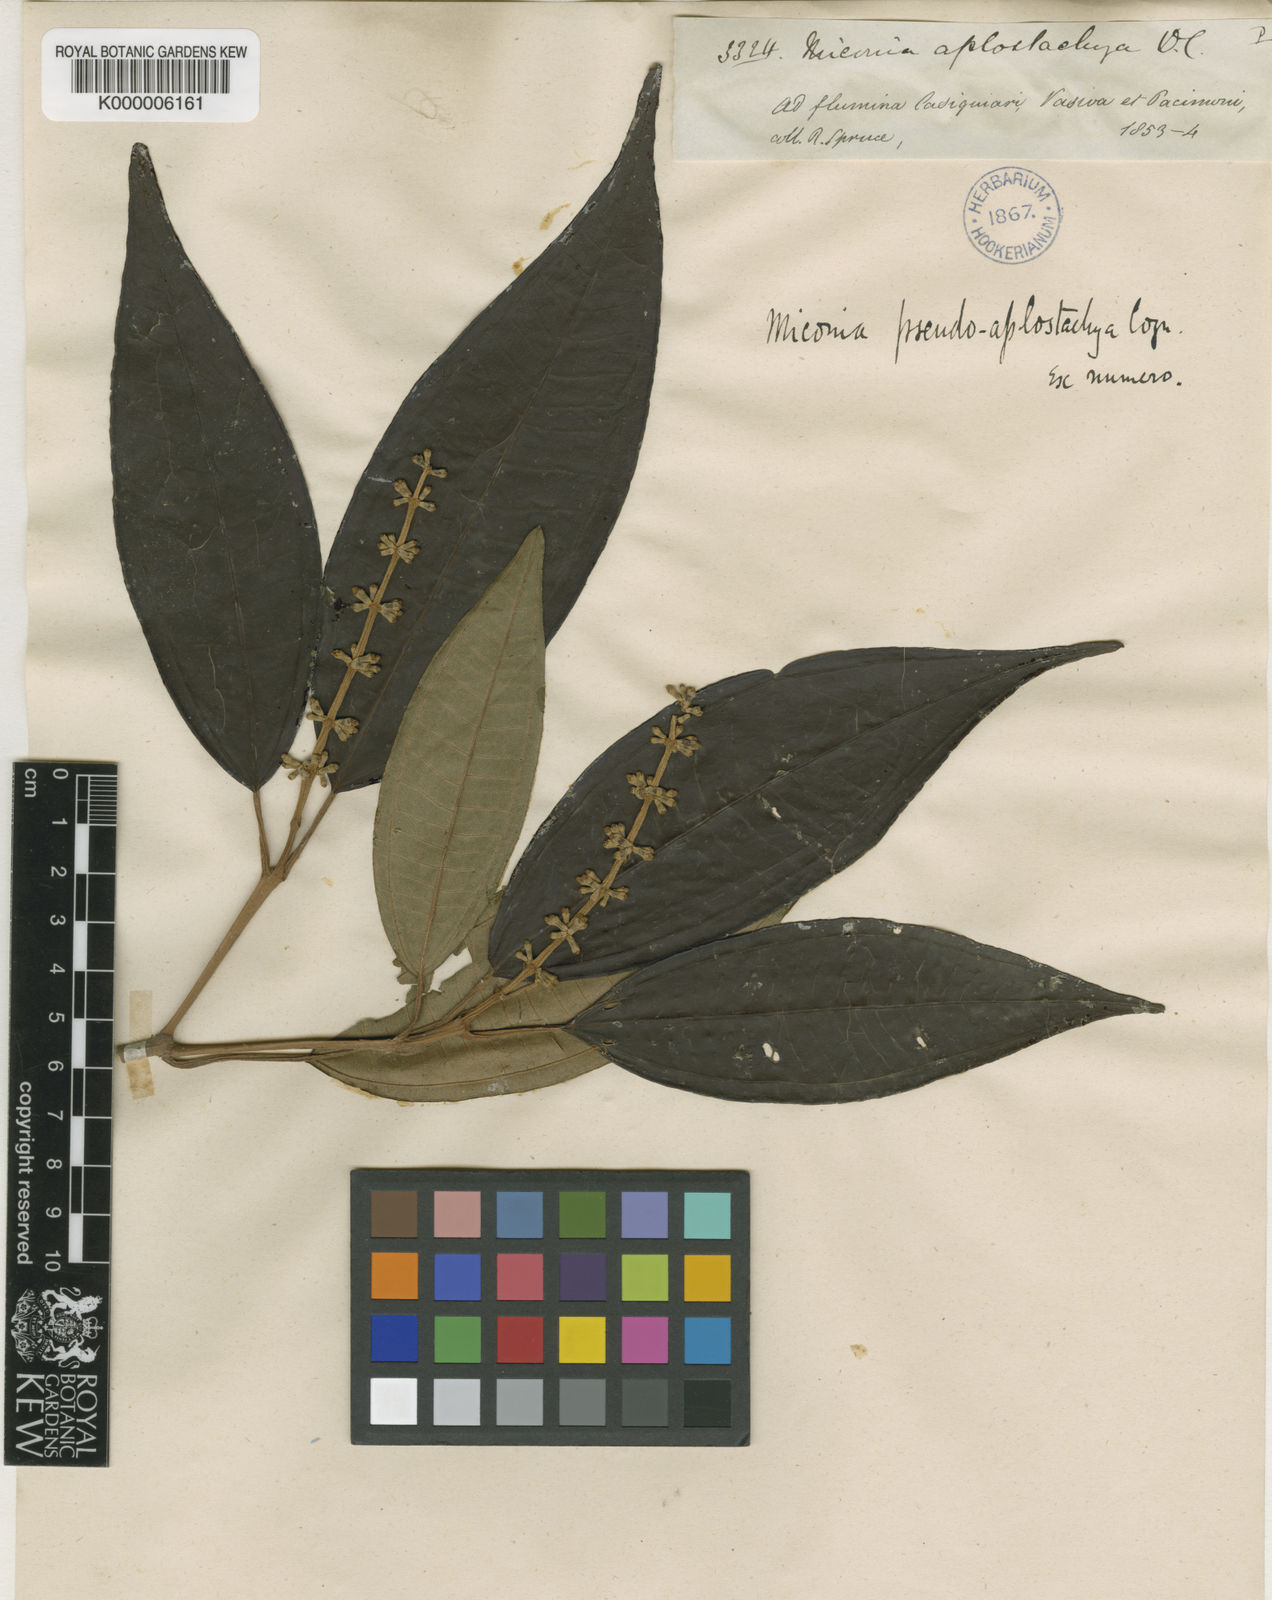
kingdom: Plantae
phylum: Tracheophyta
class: Magnoliopsida
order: Myrtales
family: Melastomataceae
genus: Miconia
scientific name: Miconia pseudoaplostachya
